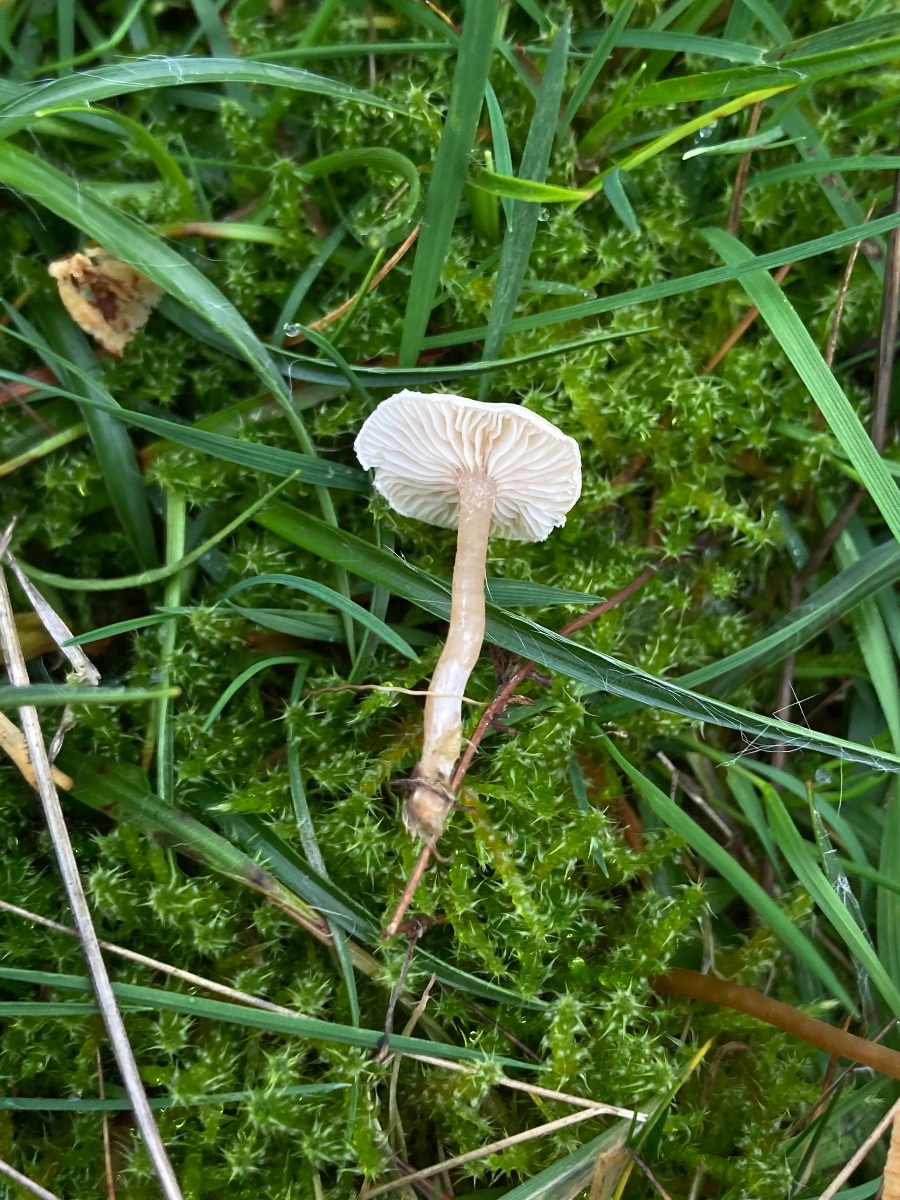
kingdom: Fungi
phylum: Basidiomycota
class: Agaricomycetes
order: Agaricales
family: Tricholomataceae
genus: Ripartites
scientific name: Ripartites tricholoma
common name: almindelig skæghat
